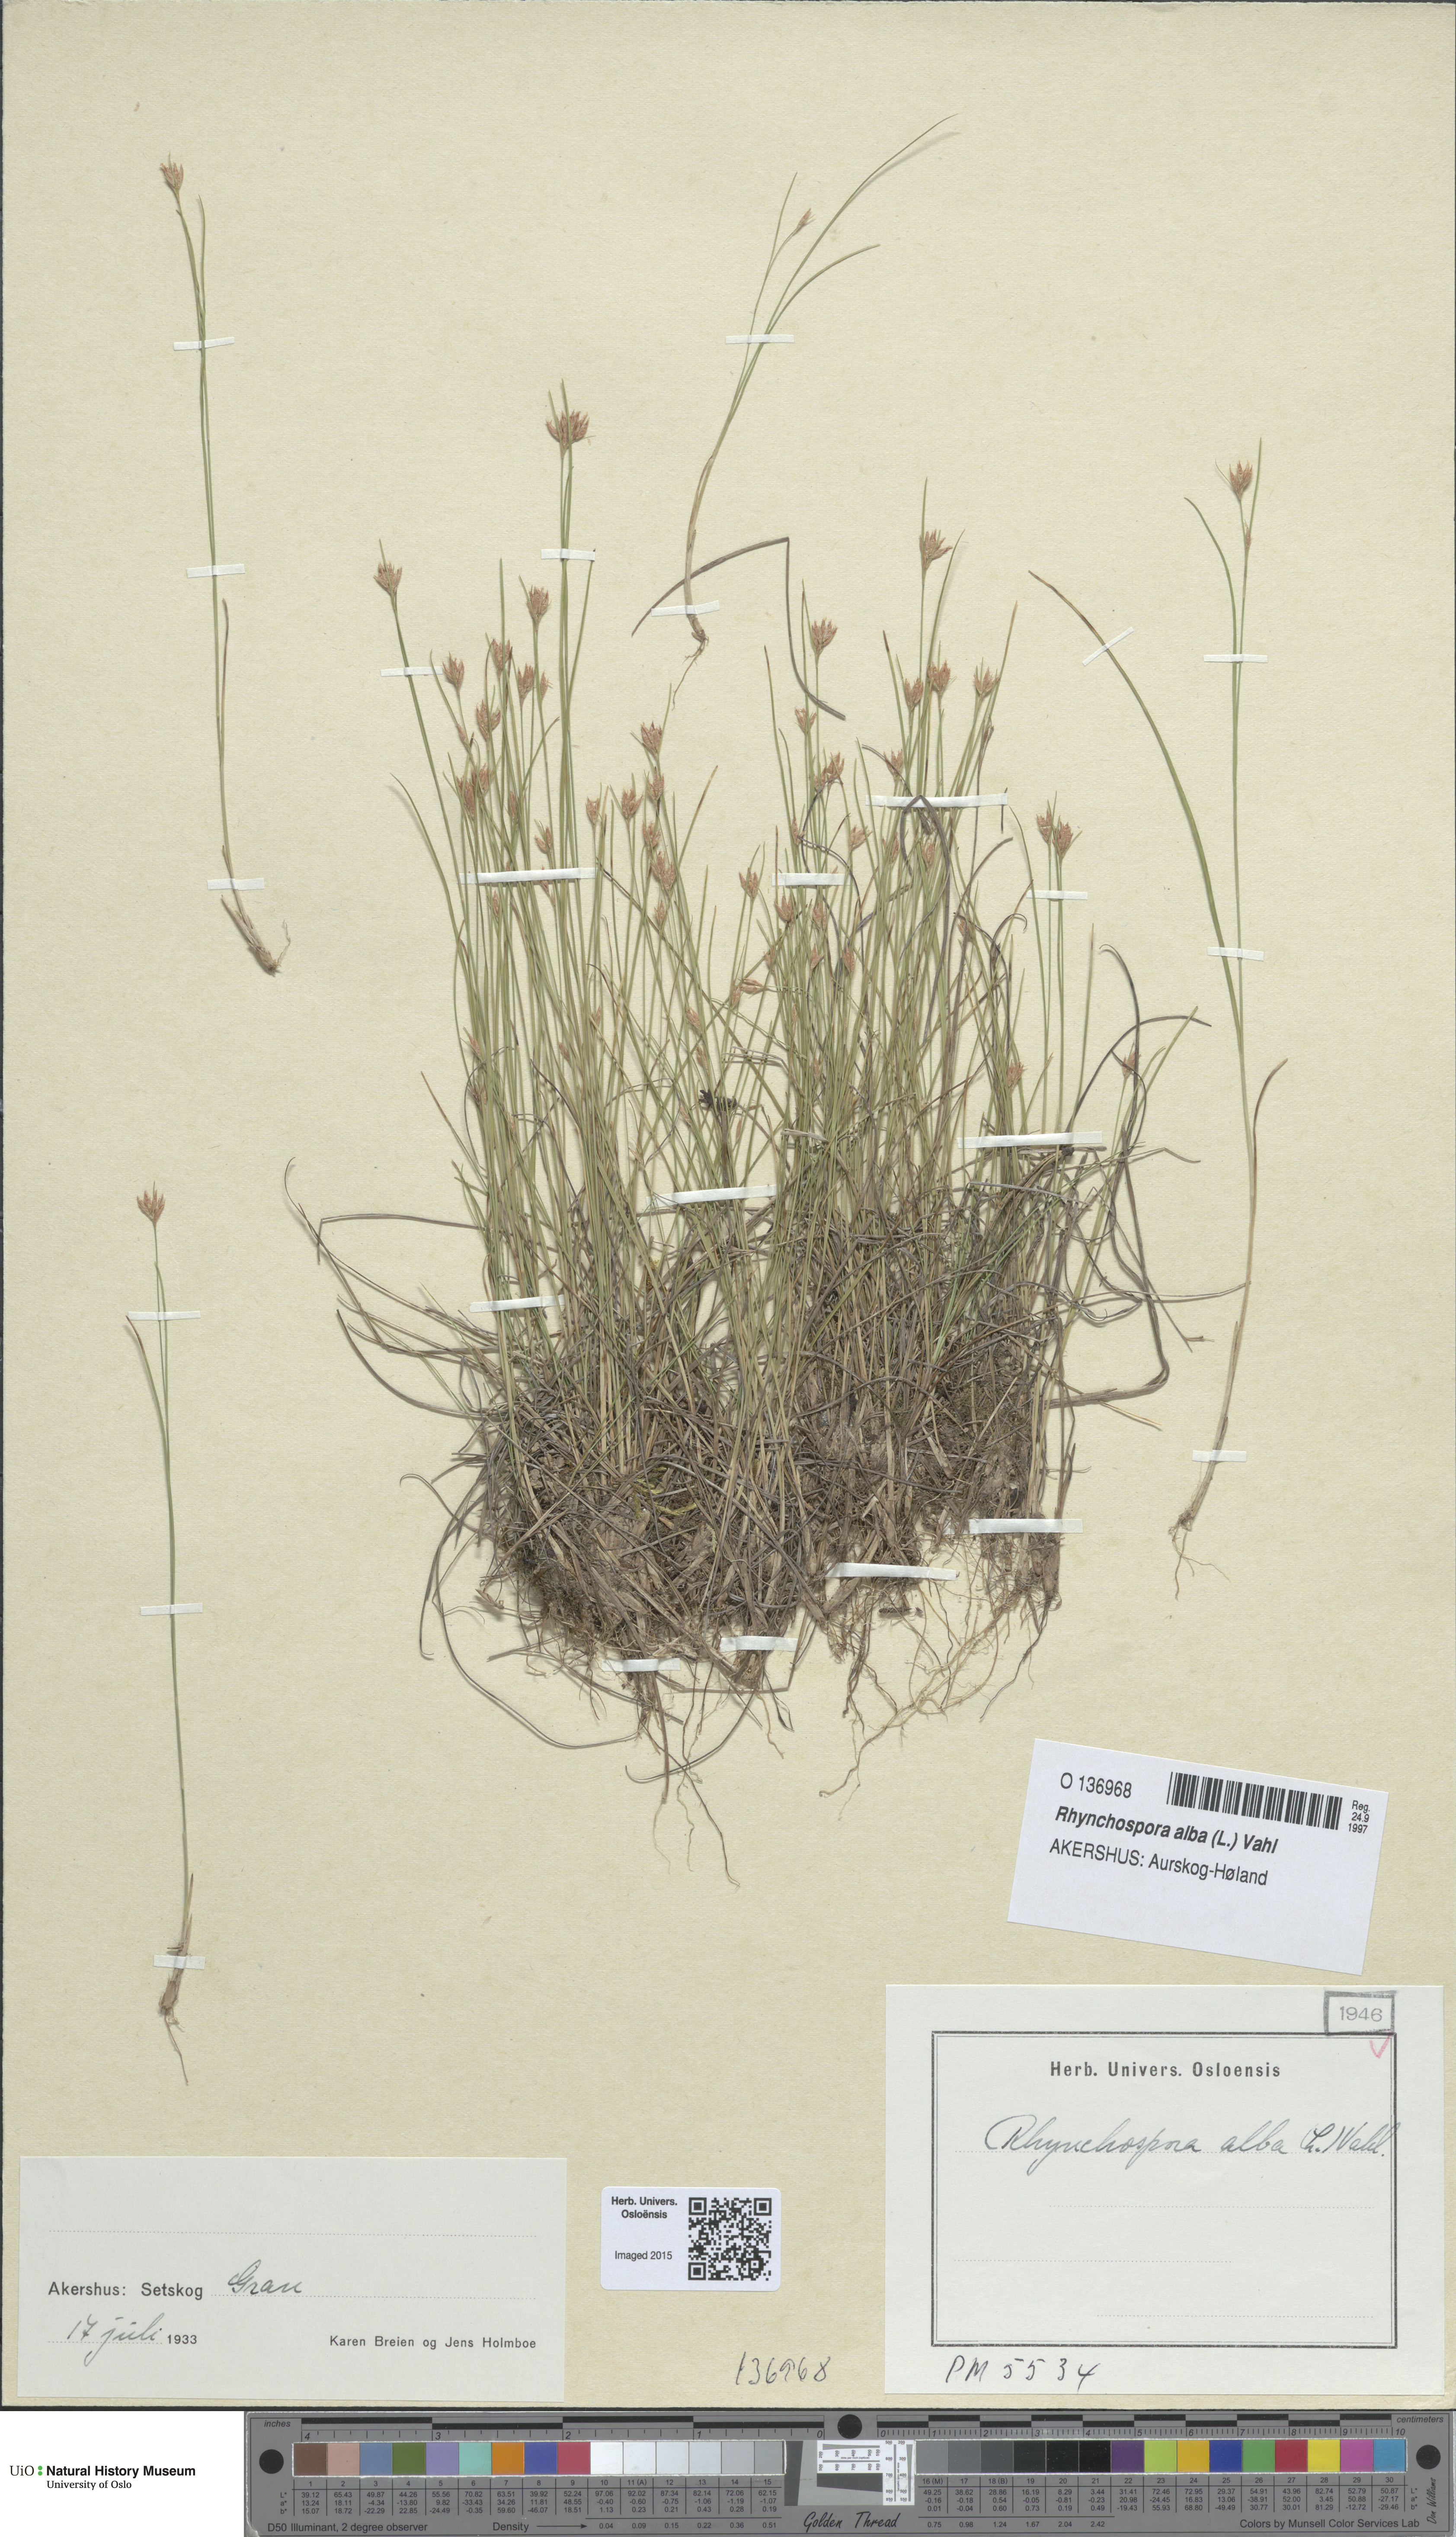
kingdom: Plantae
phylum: Tracheophyta
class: Liliopsida
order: Poales
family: Cyperaceae
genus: Rhynchospora
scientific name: Rhynchospora alba
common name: White beak-sedge
